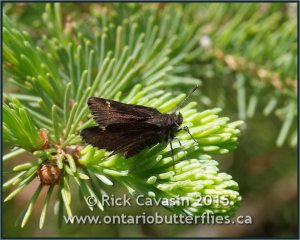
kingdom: Animalia
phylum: Arthropoda
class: Insecta
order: Lepidoptera
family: Hesperiidae
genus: Mastor
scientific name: Mastor vialis
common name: Common Roadside-Skipper
